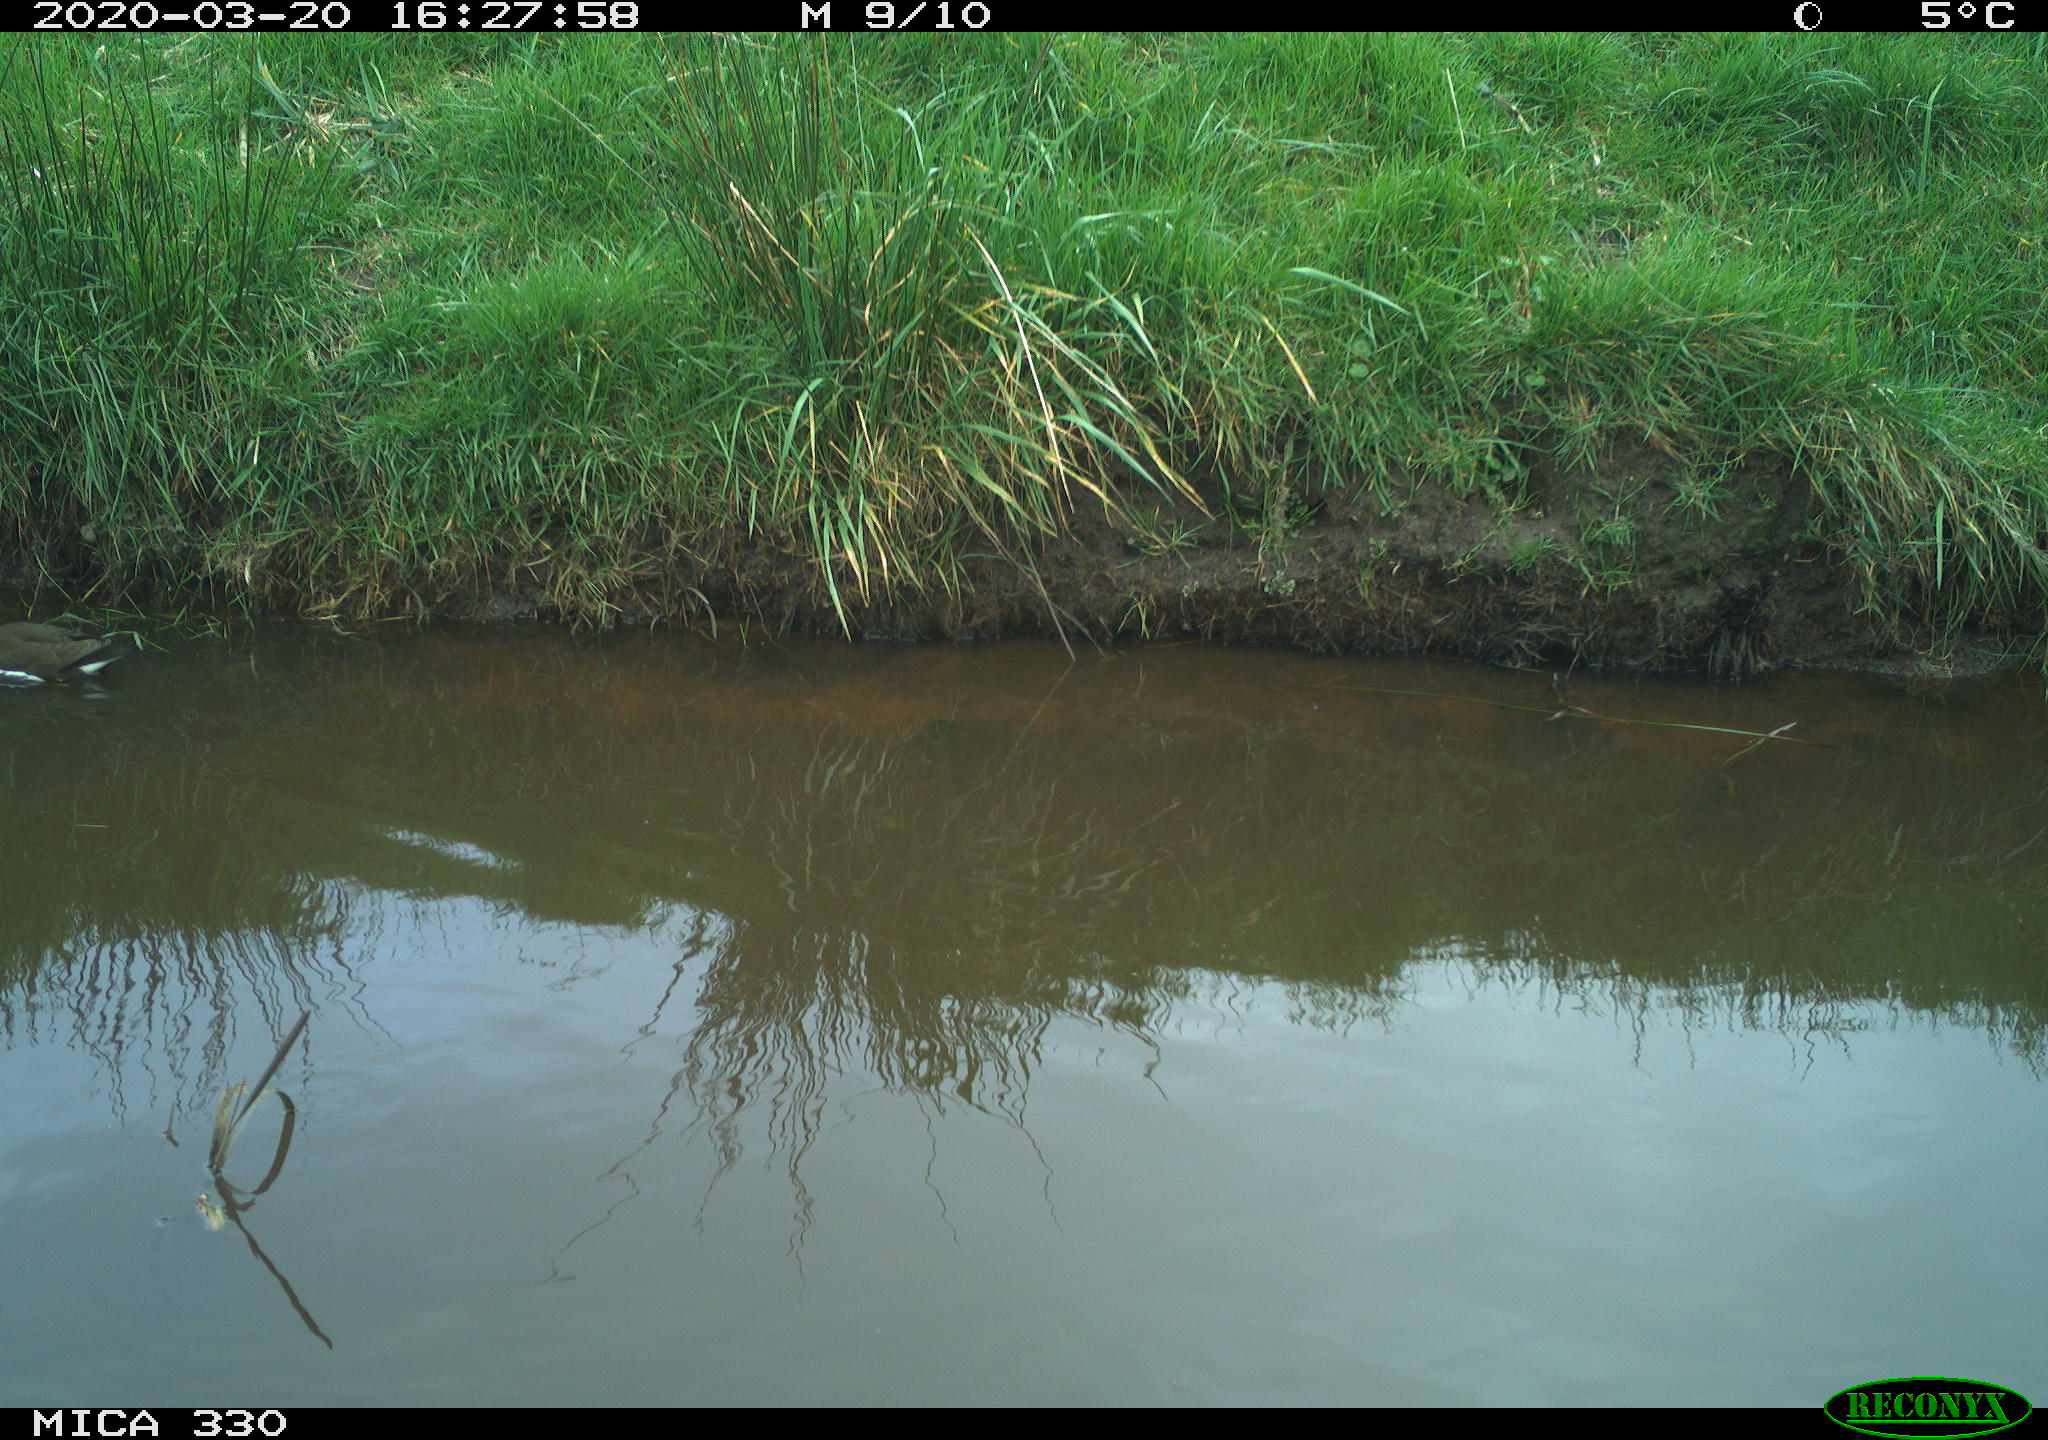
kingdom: Animalia
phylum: Chordata
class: Aves
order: Gruiformes
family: Rallidae
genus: Gallinula
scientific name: Gallinula chloropus
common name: Common moorhen
